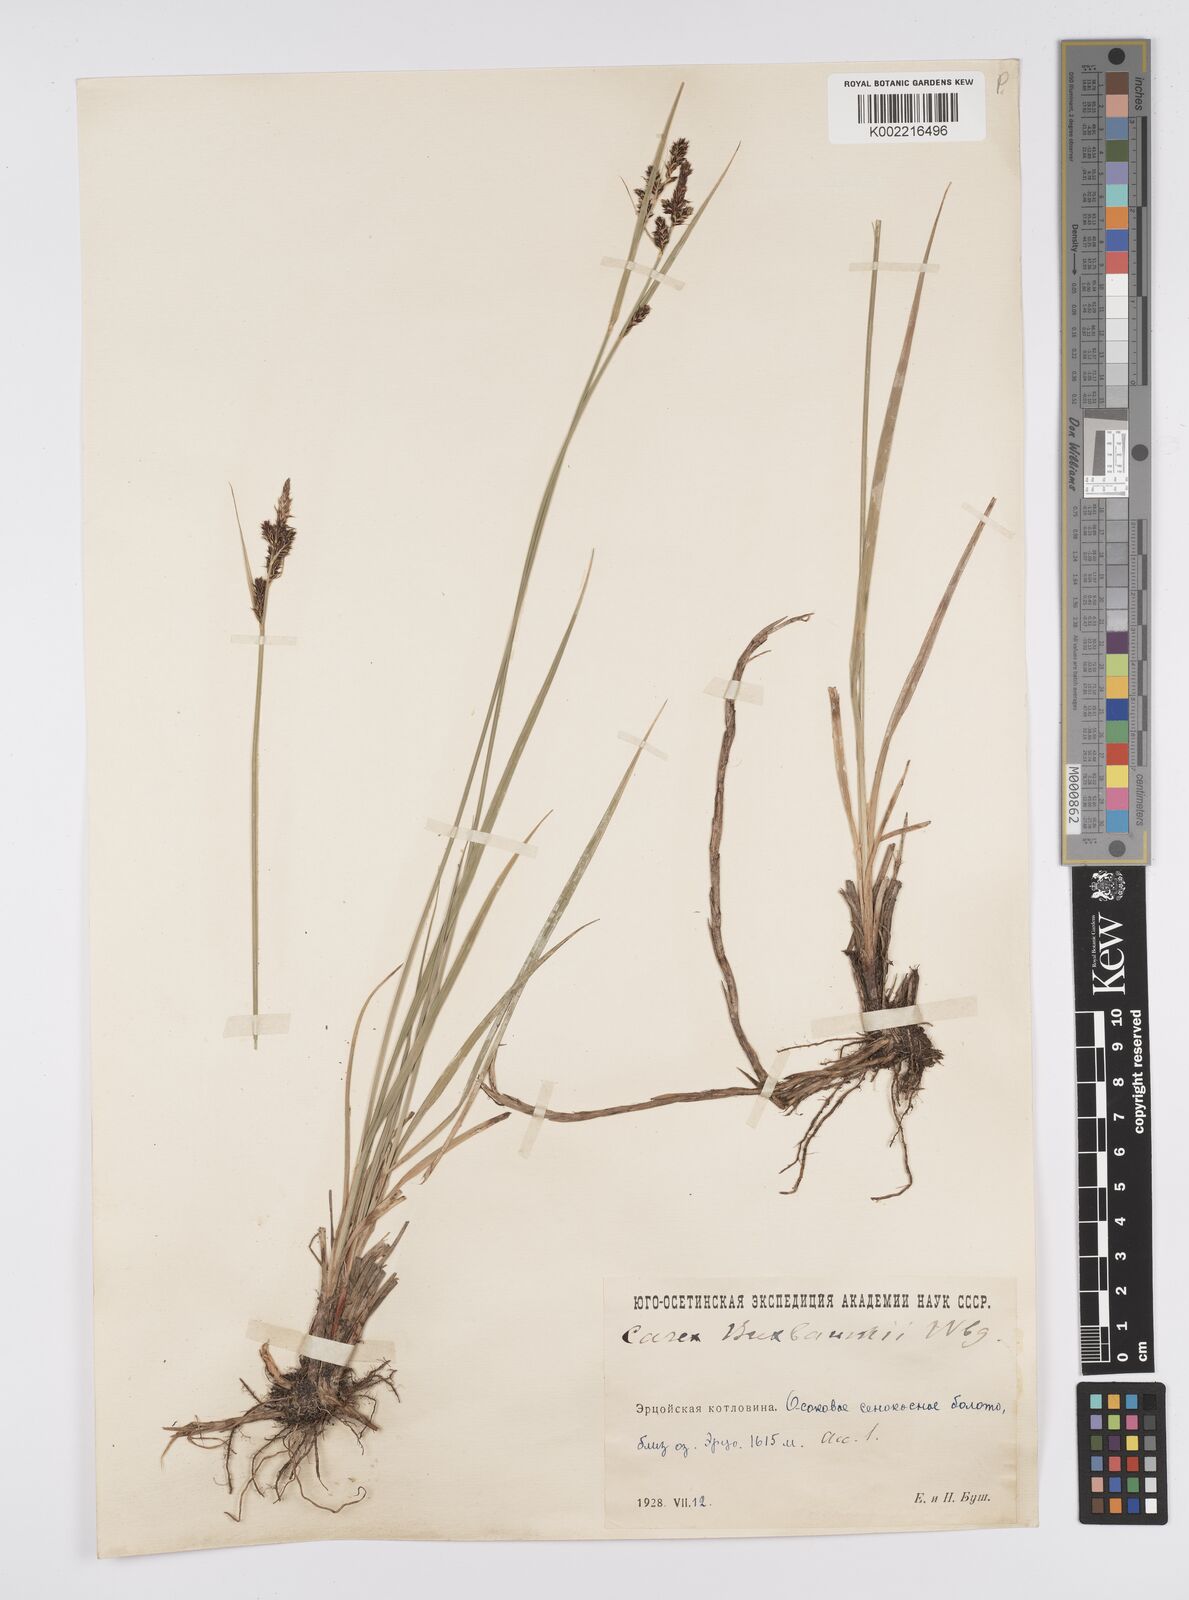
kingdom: Plantae
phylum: Tracheophyta
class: Liliopsida
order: Poales
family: Cyperaceae
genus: Carex
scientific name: Carex buxbaumii
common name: Club sedge
